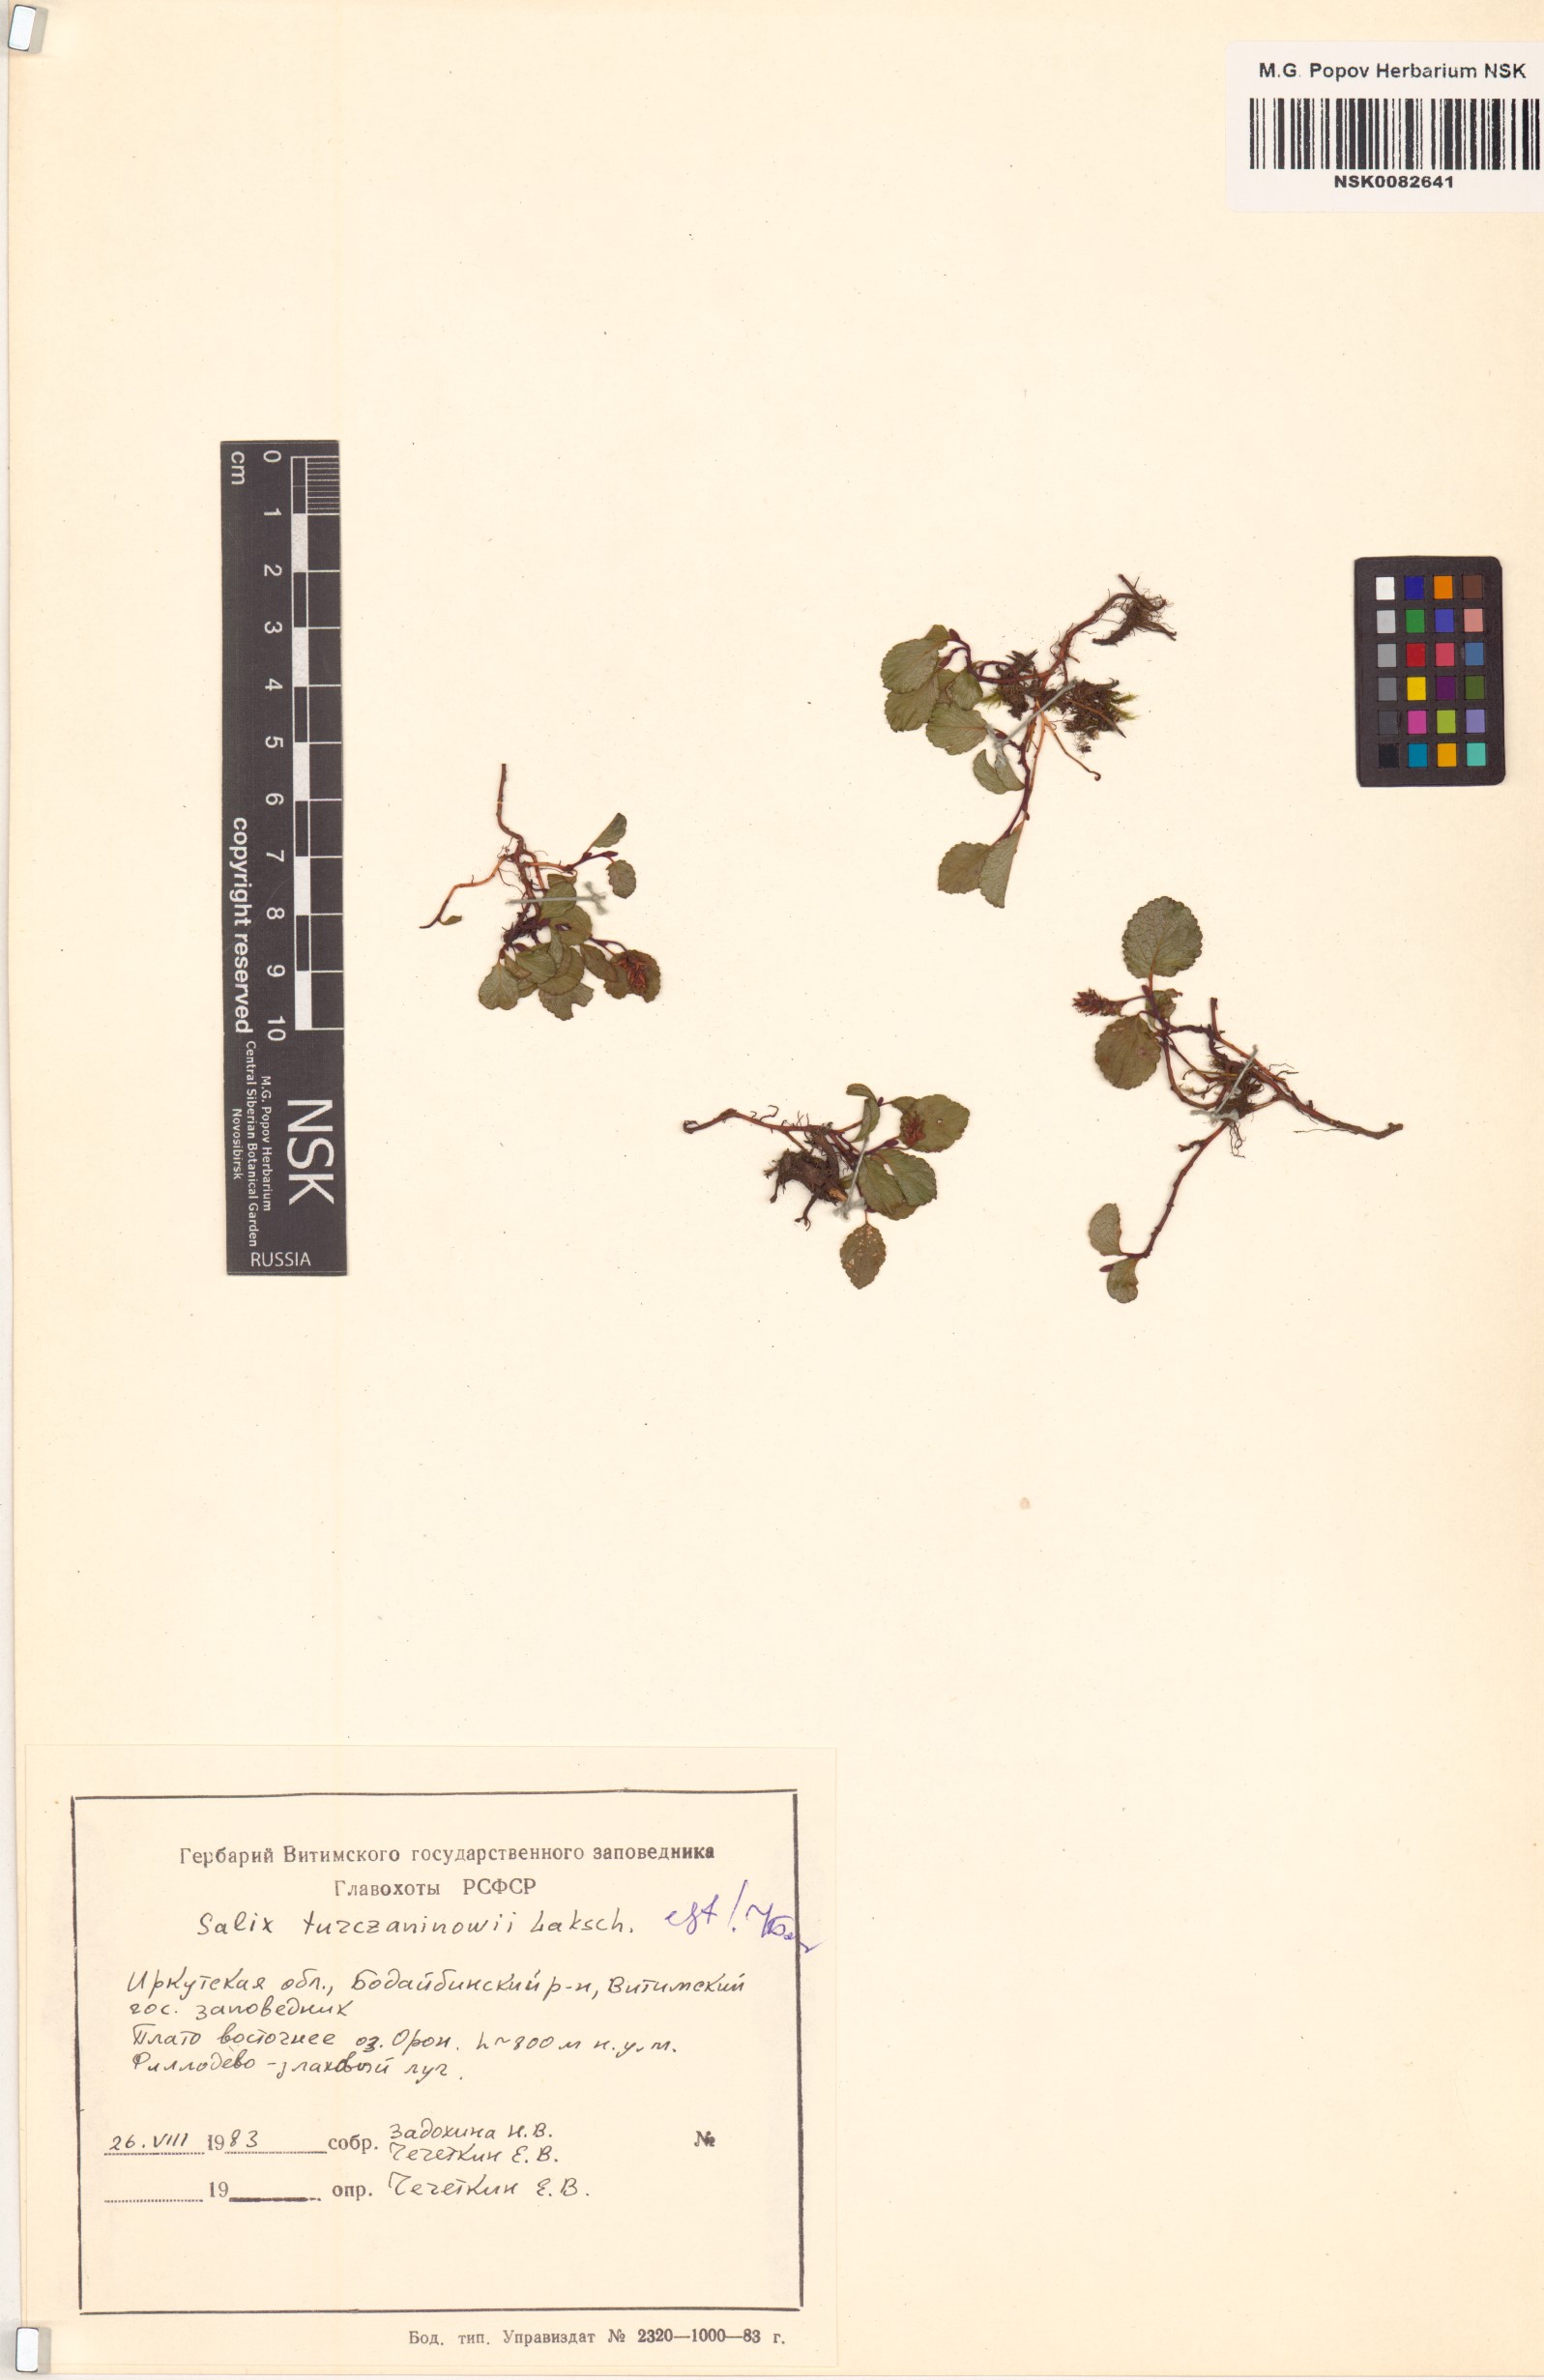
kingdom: Plantae
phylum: Tracheophyta
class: Magnoliopsida
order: Malpighiales
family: Salicaceae
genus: Salix
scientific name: Salix turczaninowii
